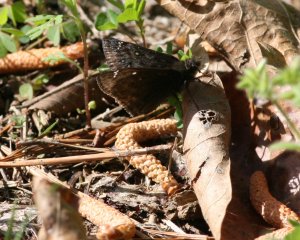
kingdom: Animalia
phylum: Arthropoda
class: Insecta
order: Lepidoptera
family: Hesperiidae
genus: Gesta
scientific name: Gesta
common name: Juvenal's Duskywing
